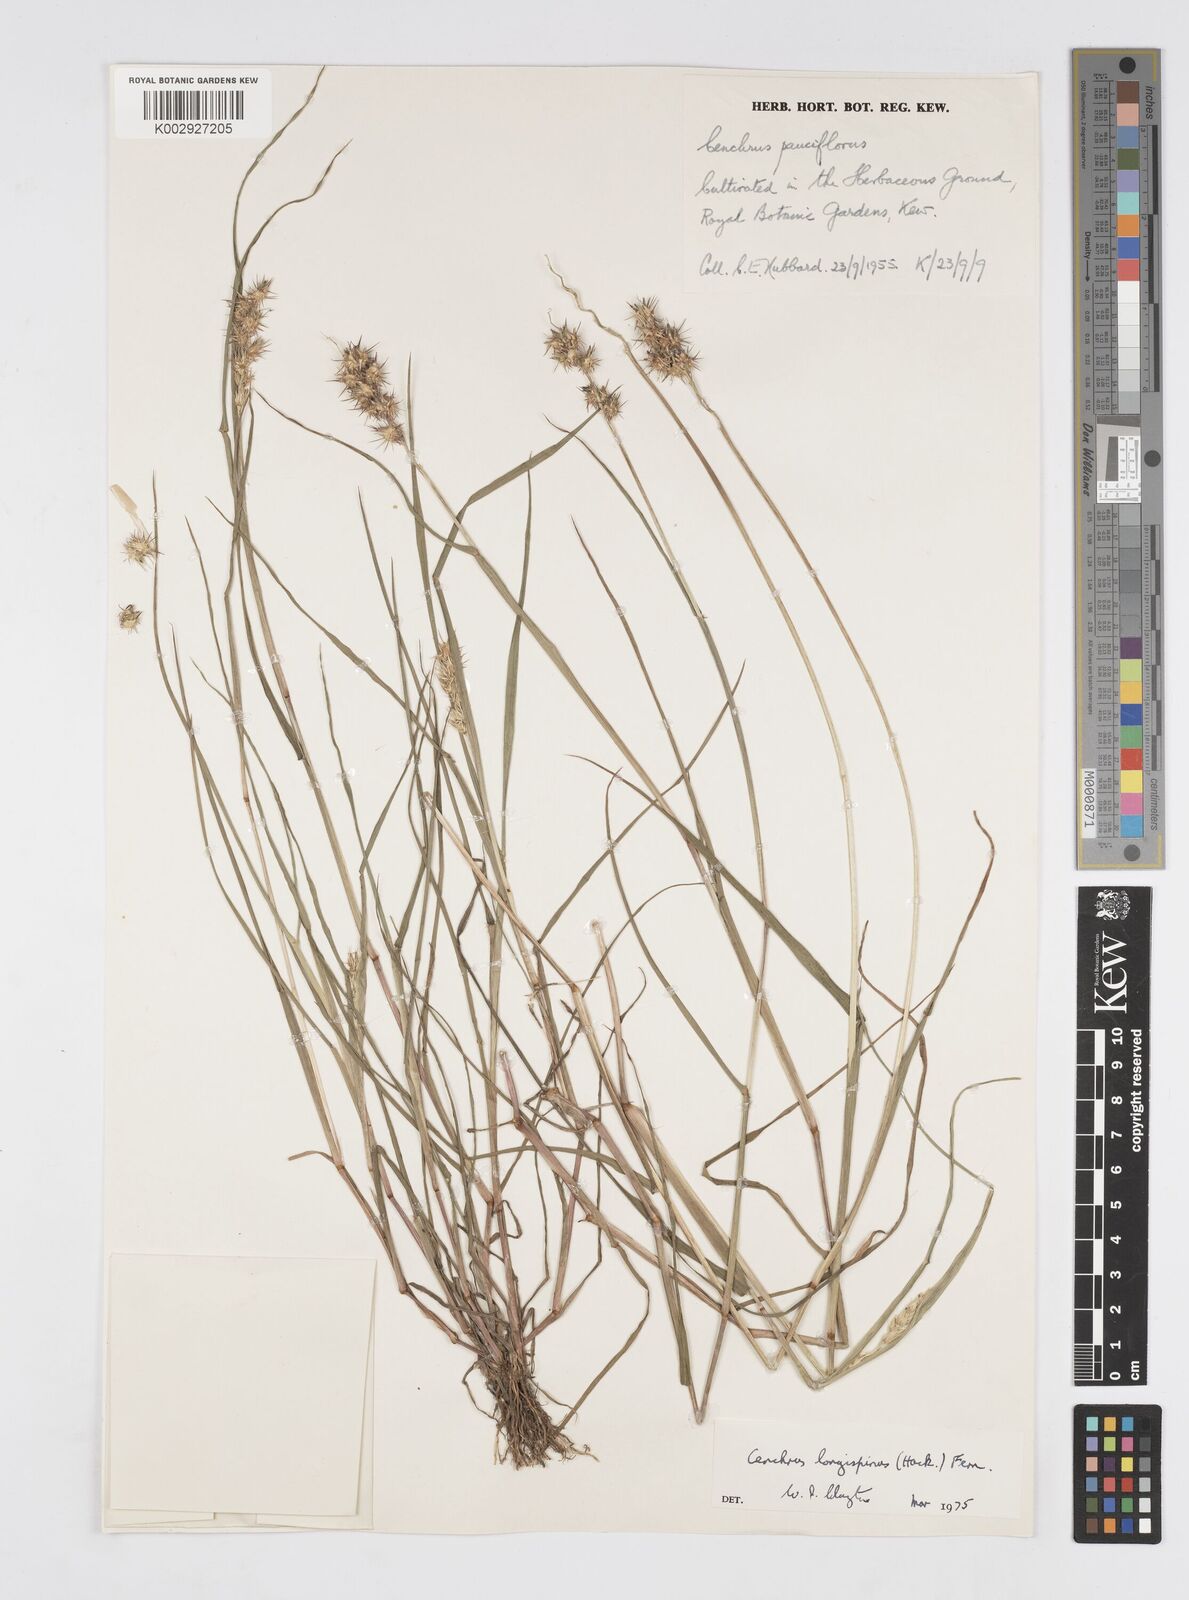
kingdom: Plantae
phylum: Tracheophyta
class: Liliopsida
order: Poales
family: Poaceae
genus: Cenchrus
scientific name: Cenchrus longispinus
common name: Mat sandbur
